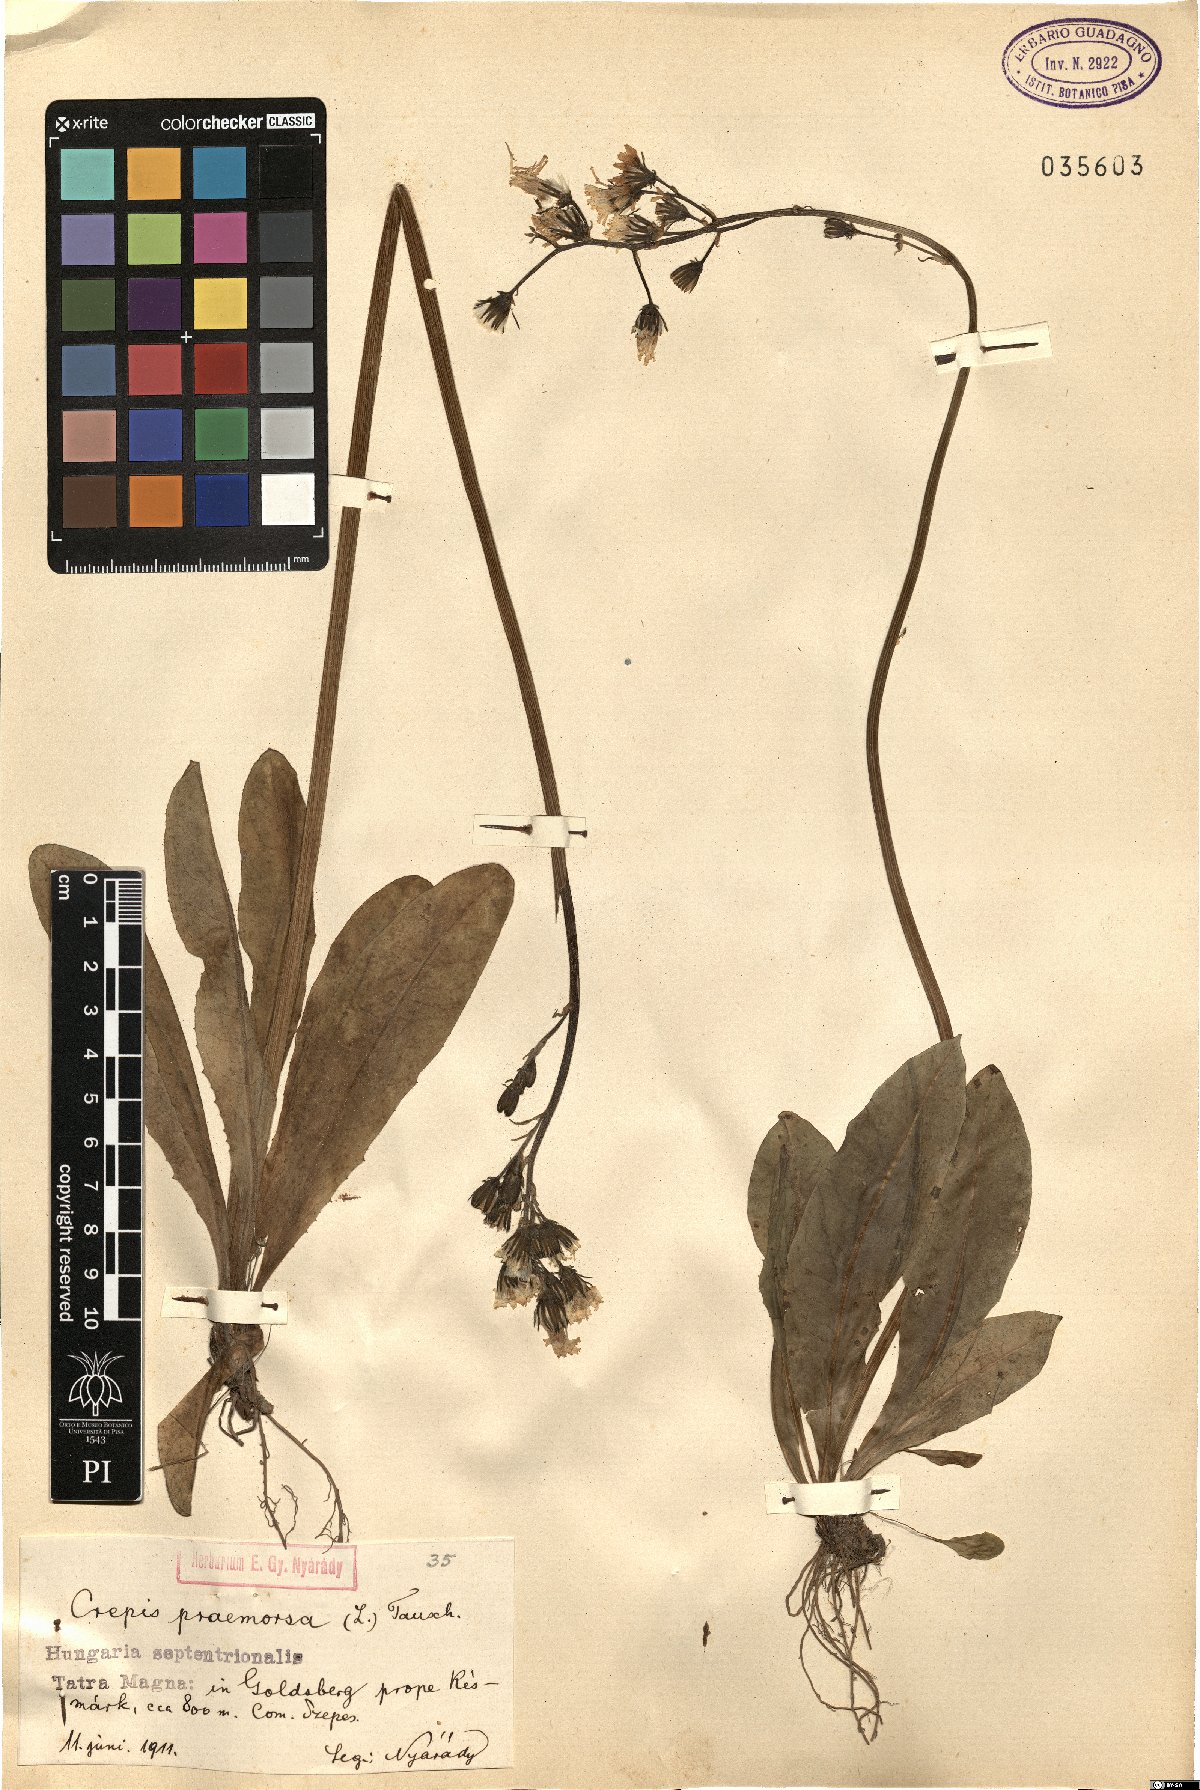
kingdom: Plantae
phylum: Tracheophyta
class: Magnoliopsida
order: Asterales
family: Asteraceae
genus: Crepis
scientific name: Crepis praemorsa
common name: Leafless hawk's-beard
